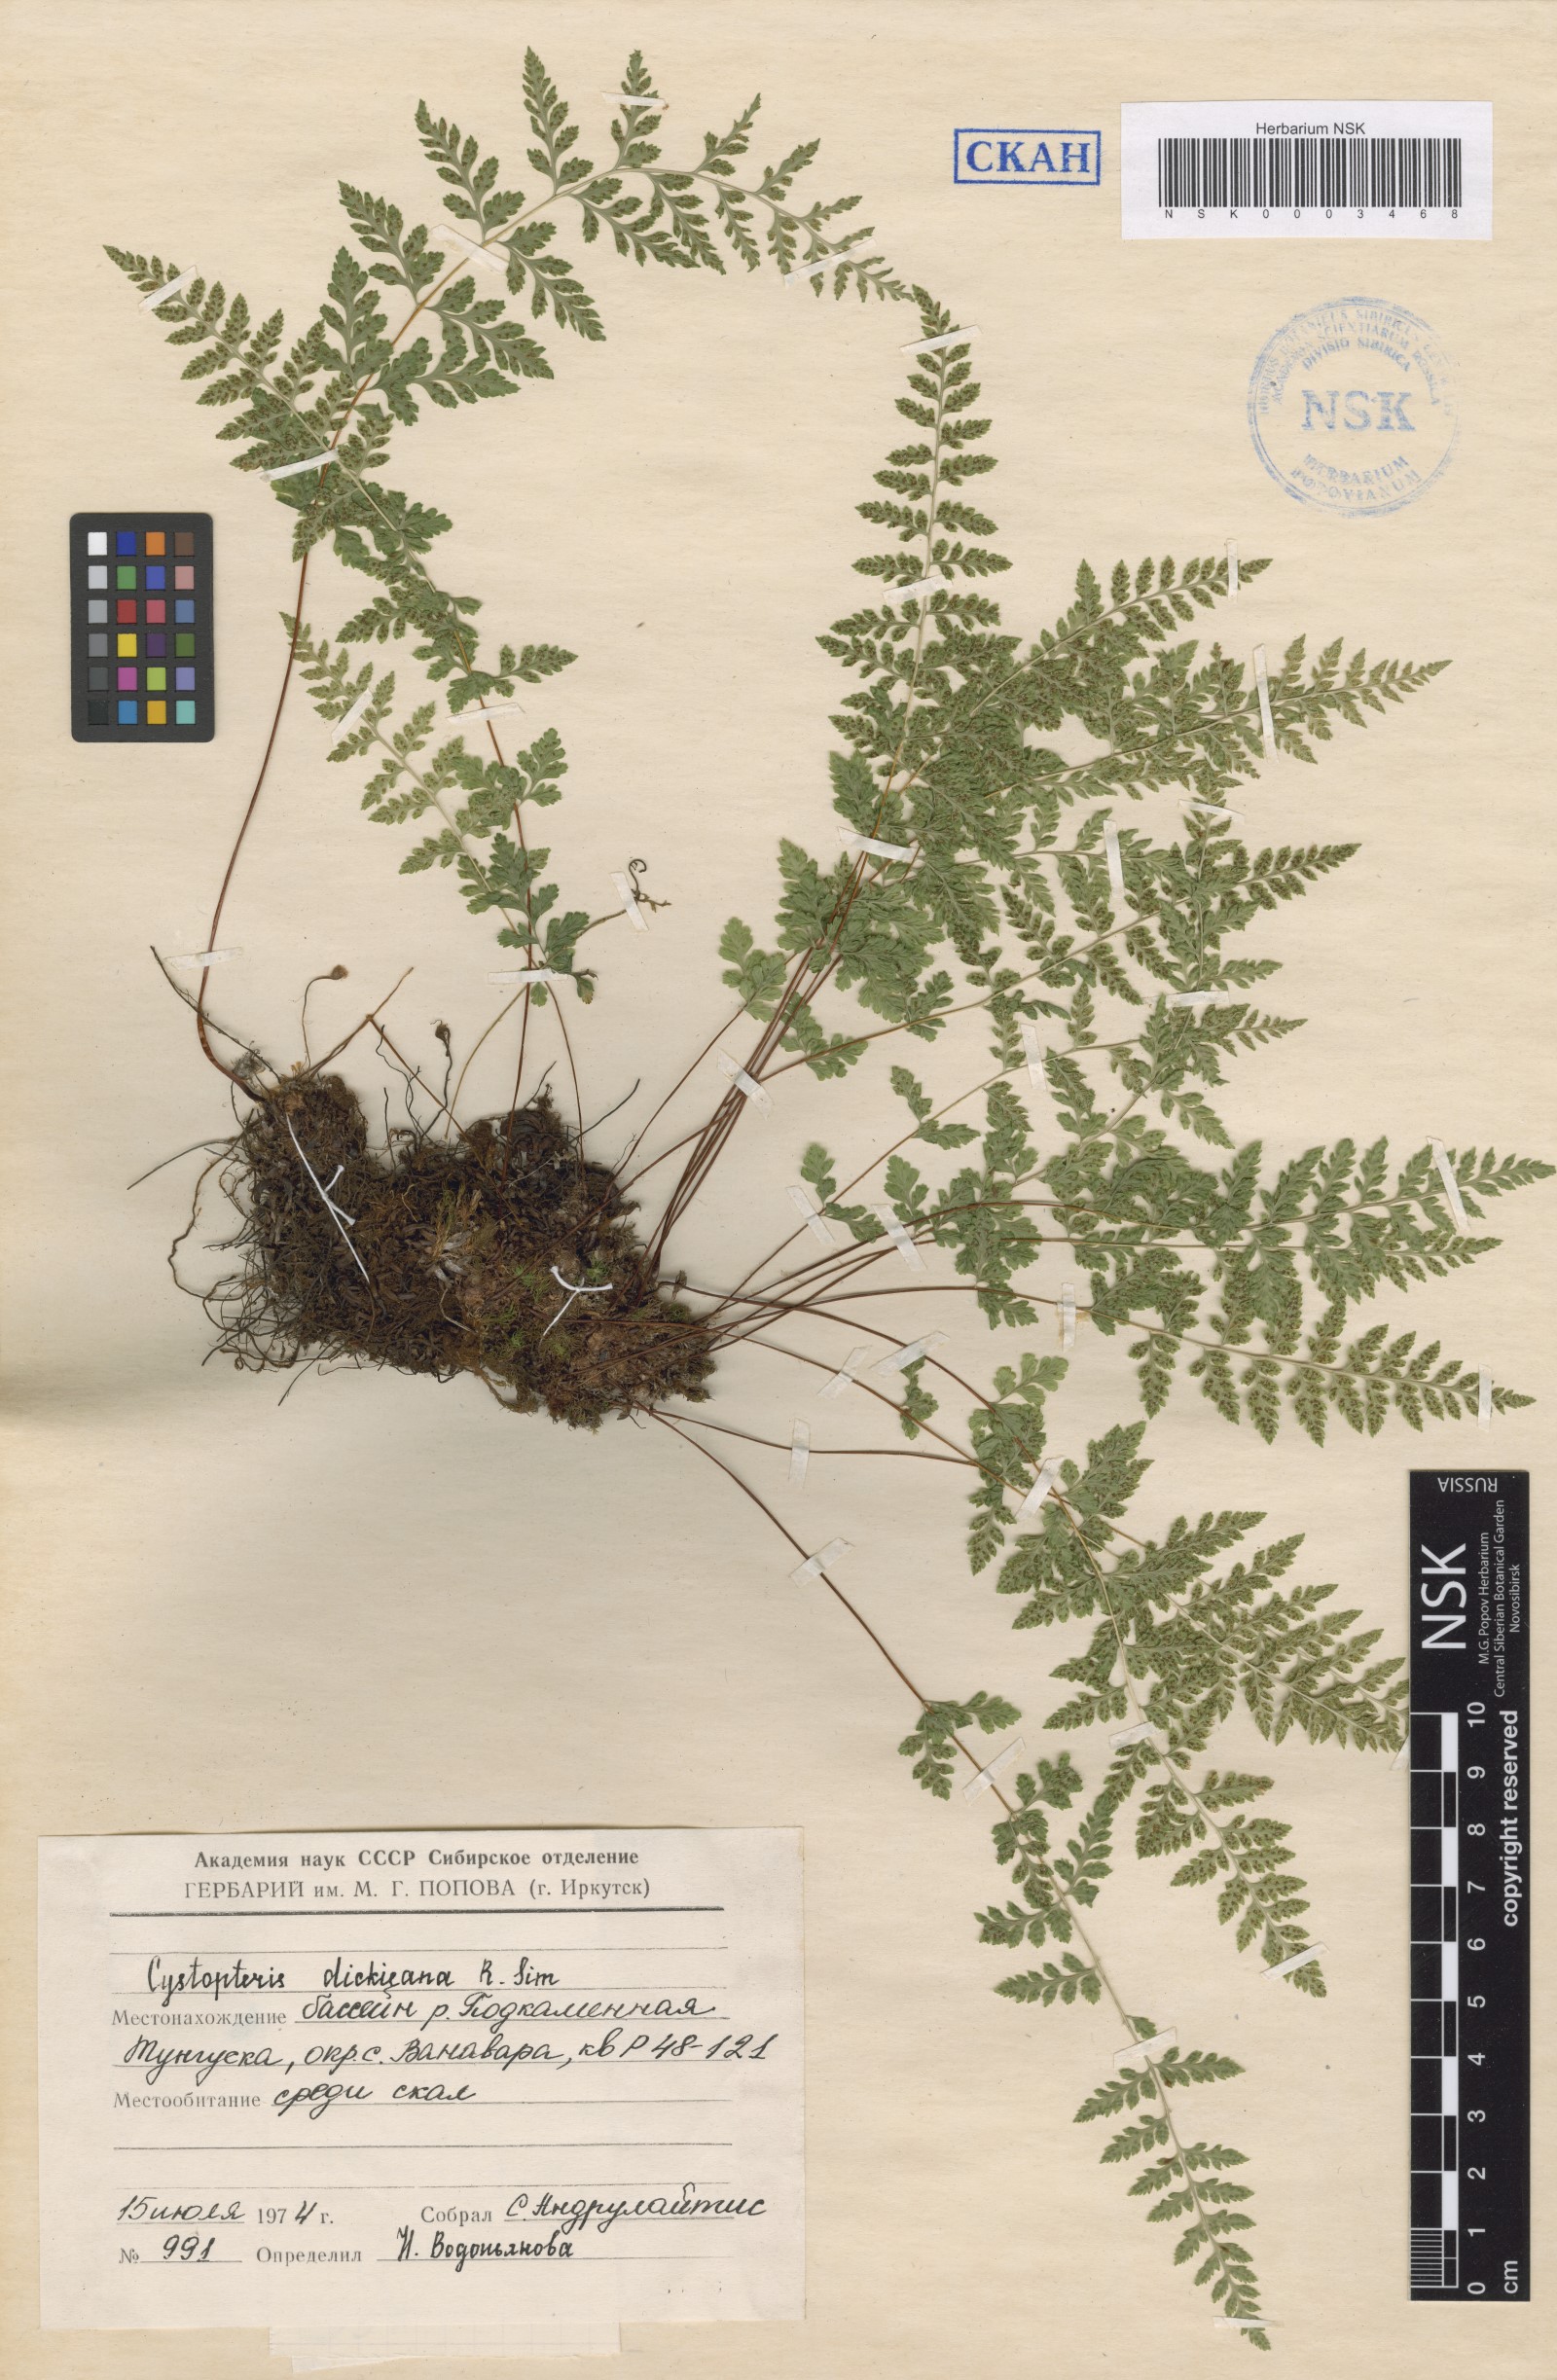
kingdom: Plantae
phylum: Tracheophyta
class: Polypodiopsida
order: Polypodiales
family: Cystopteridaceae
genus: Cystopteris
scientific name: Cystopteris dickieana
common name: Dickie's bladder-fern
